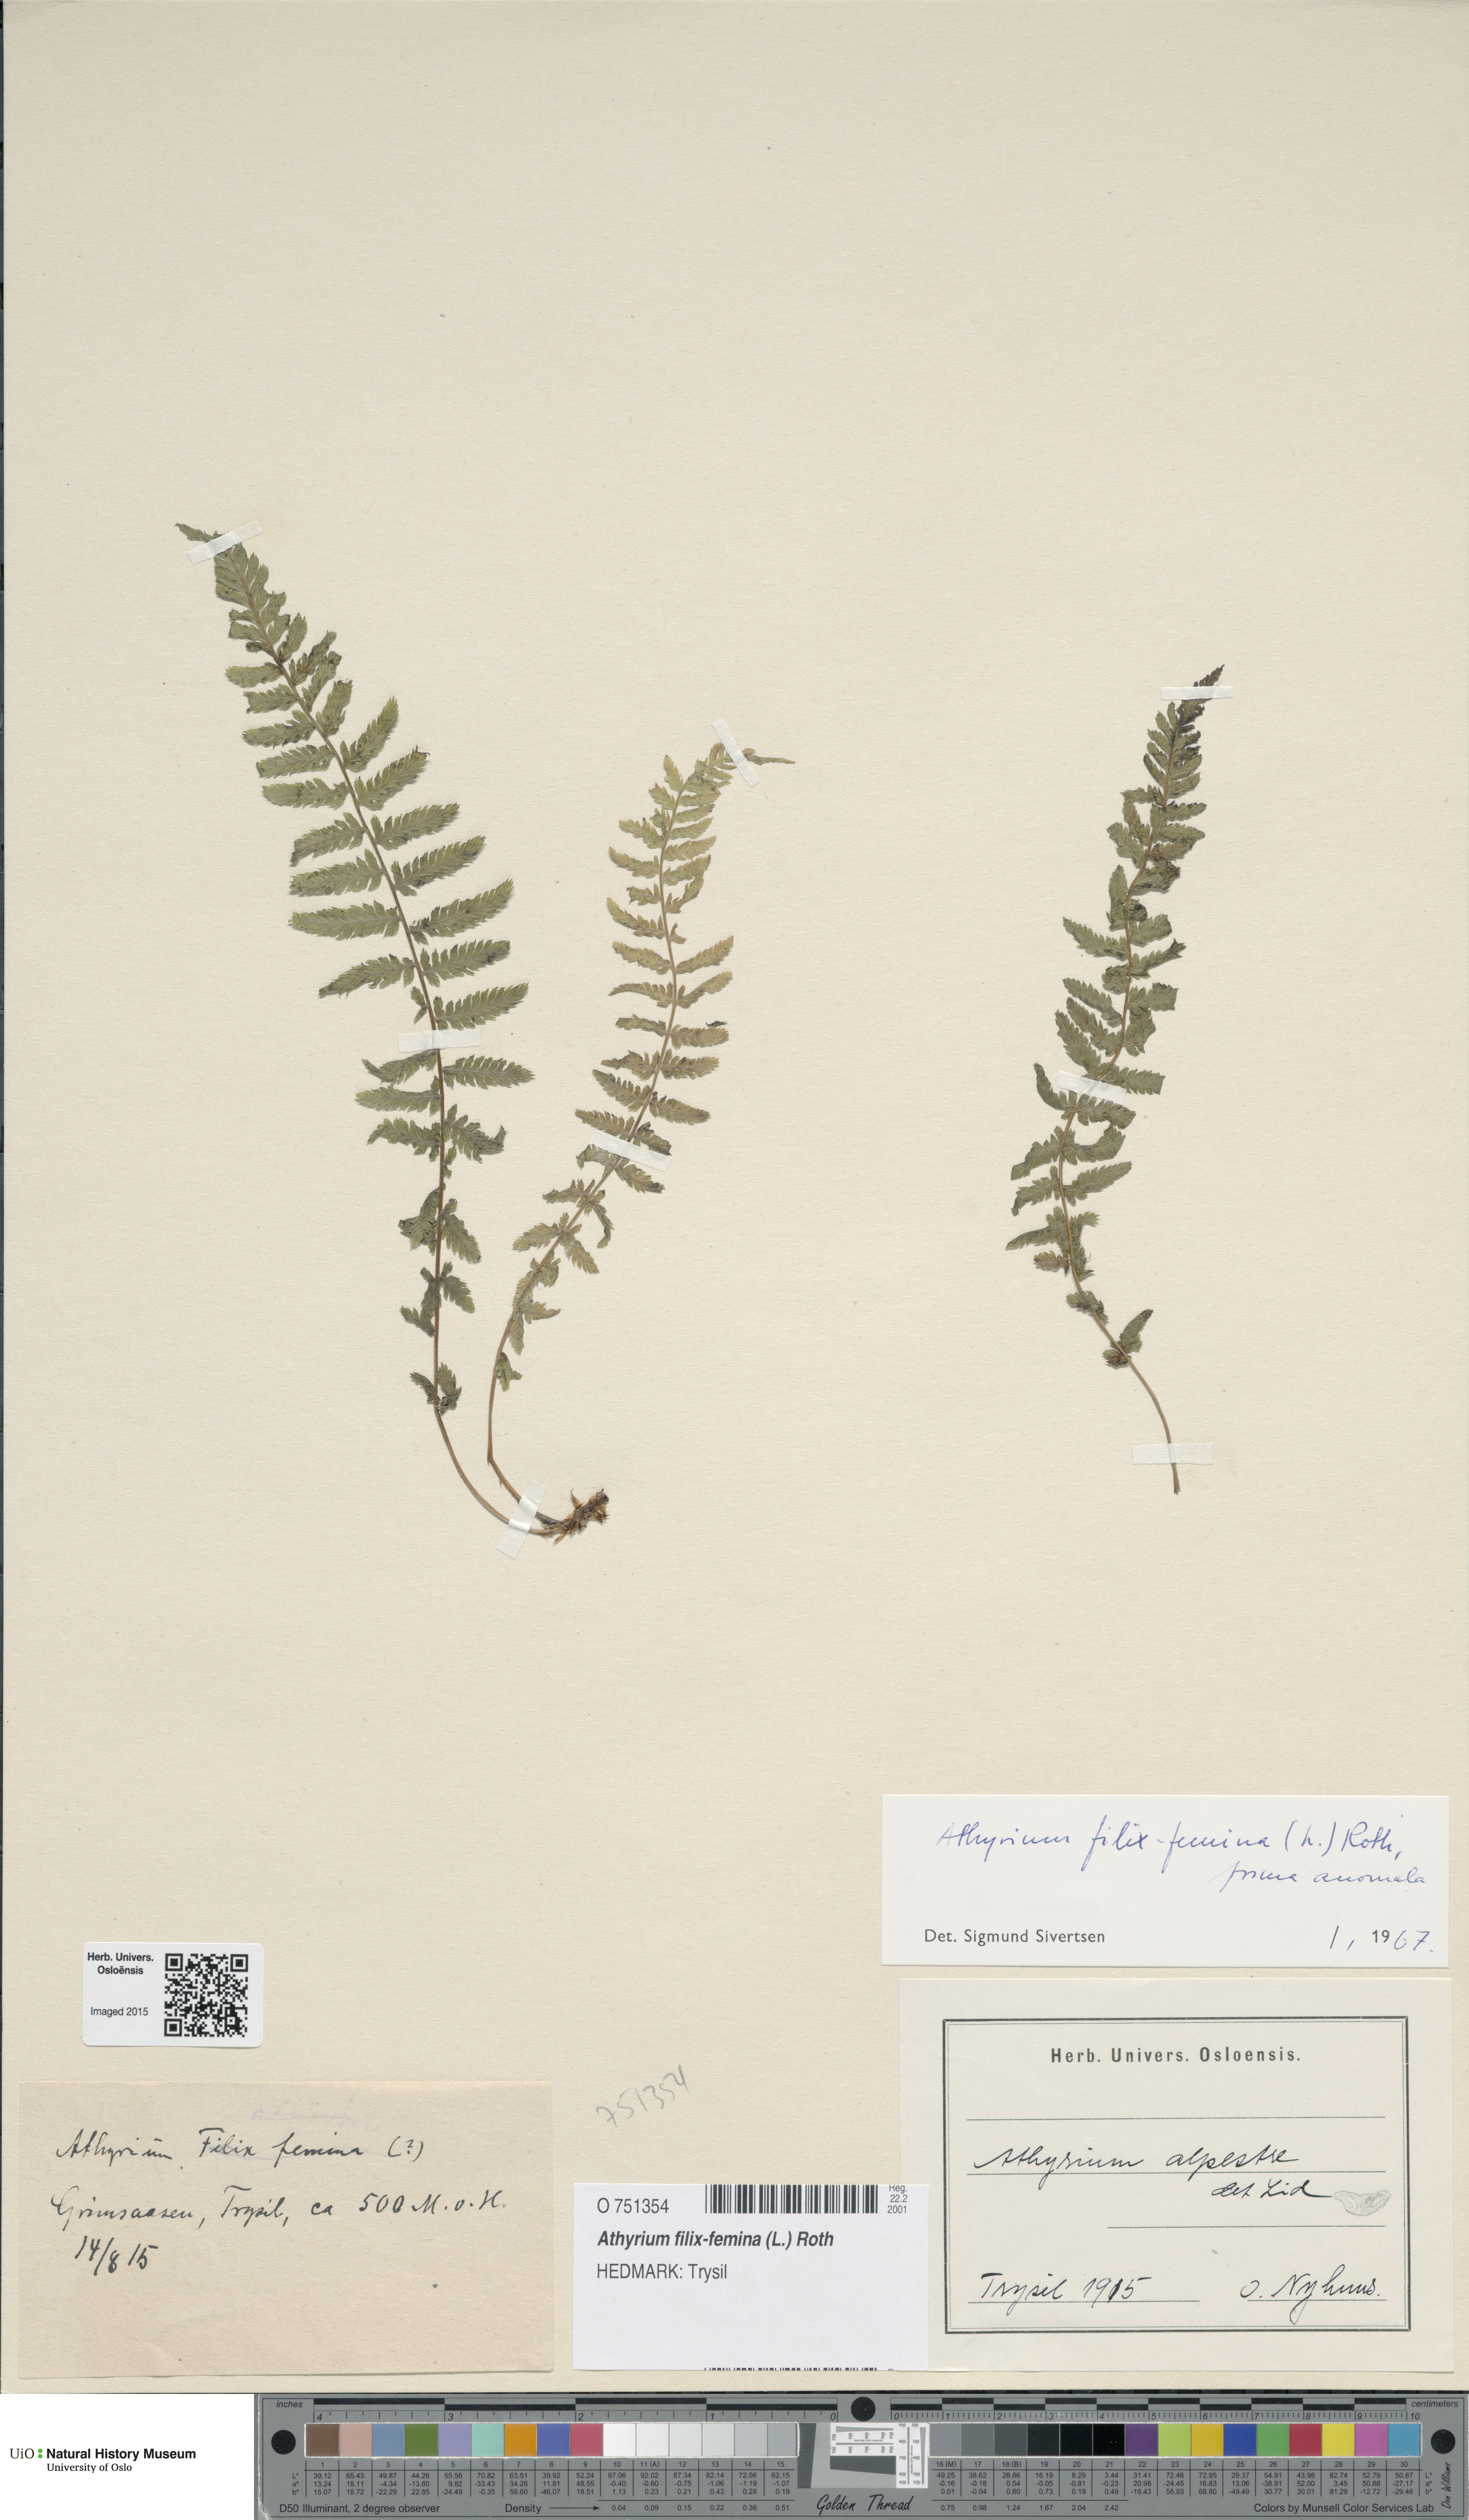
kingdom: Plantae
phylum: Tracheophyta
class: Polypodiopsida
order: Polypodiales
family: Athyriaceae
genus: Athyrium
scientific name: Athyrium filix-femina
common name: Lady fern
